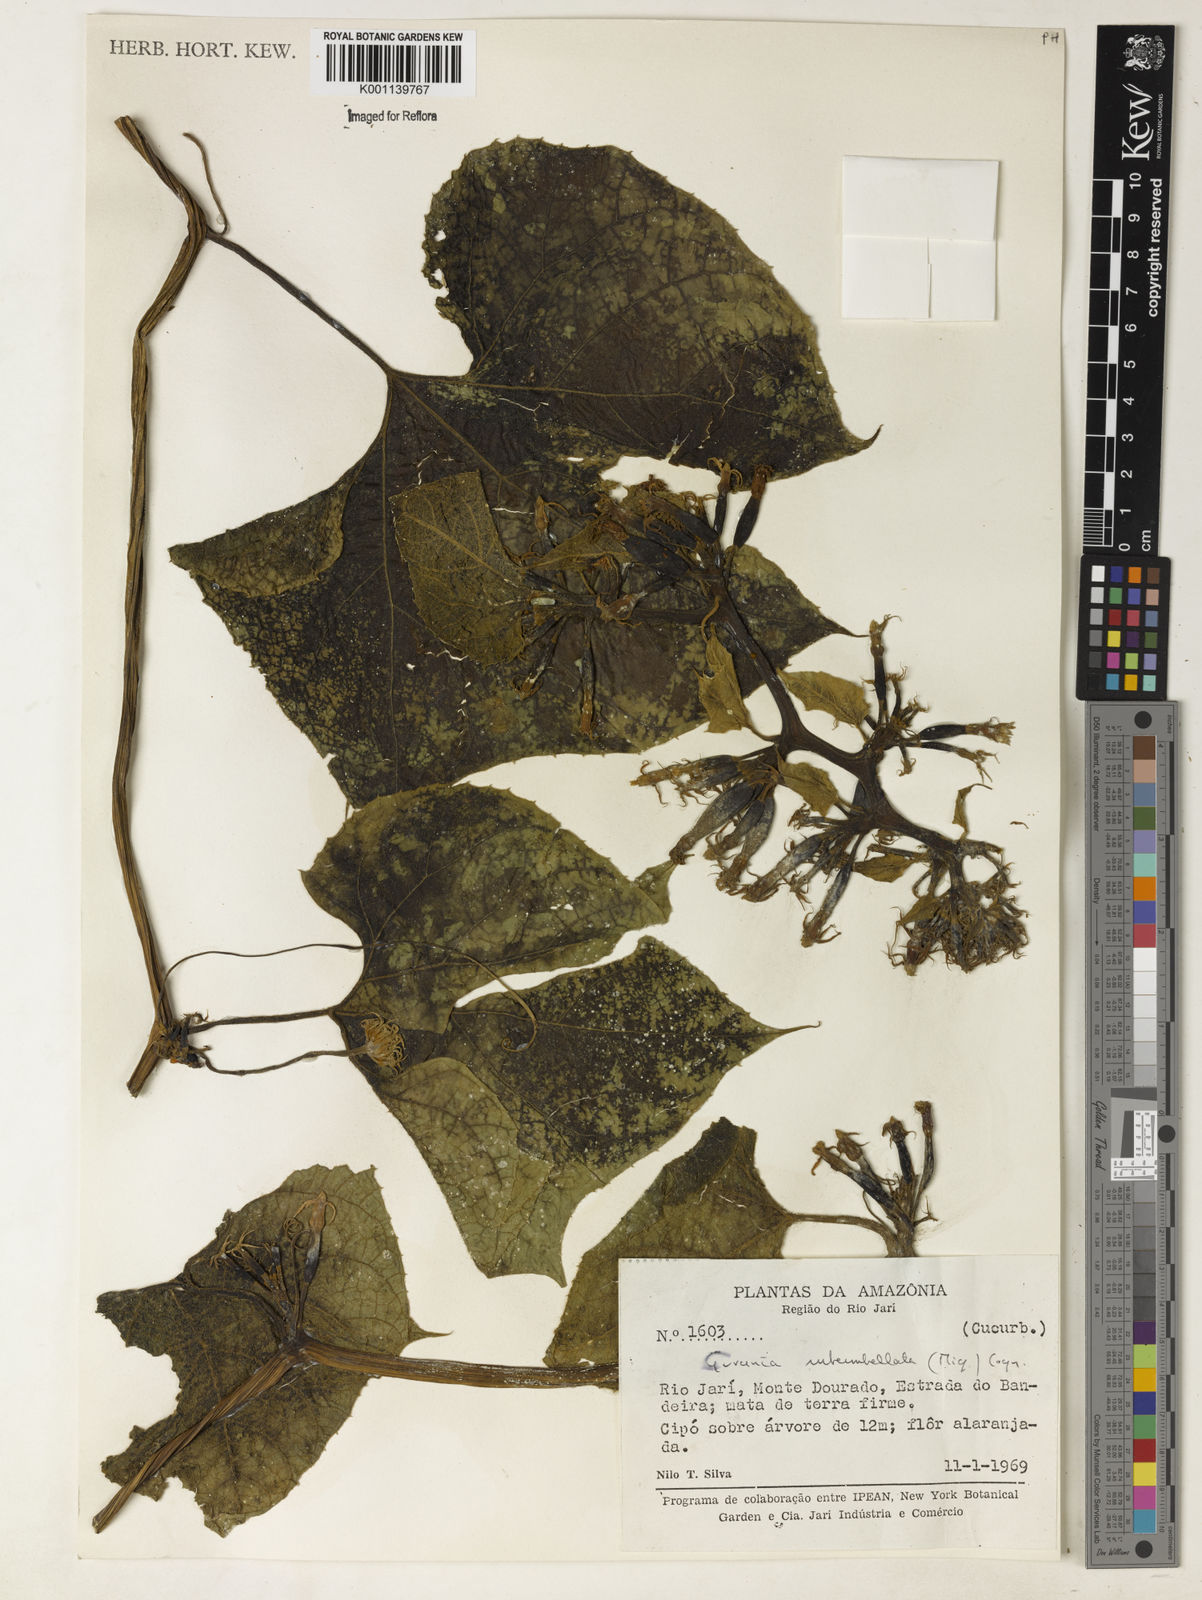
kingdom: Plantae
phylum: Tracheophyta
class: Magnoliopsida
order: Cucurbitales
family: Cucurbitaceae
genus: Gurania
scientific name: Gurania subumbellata
